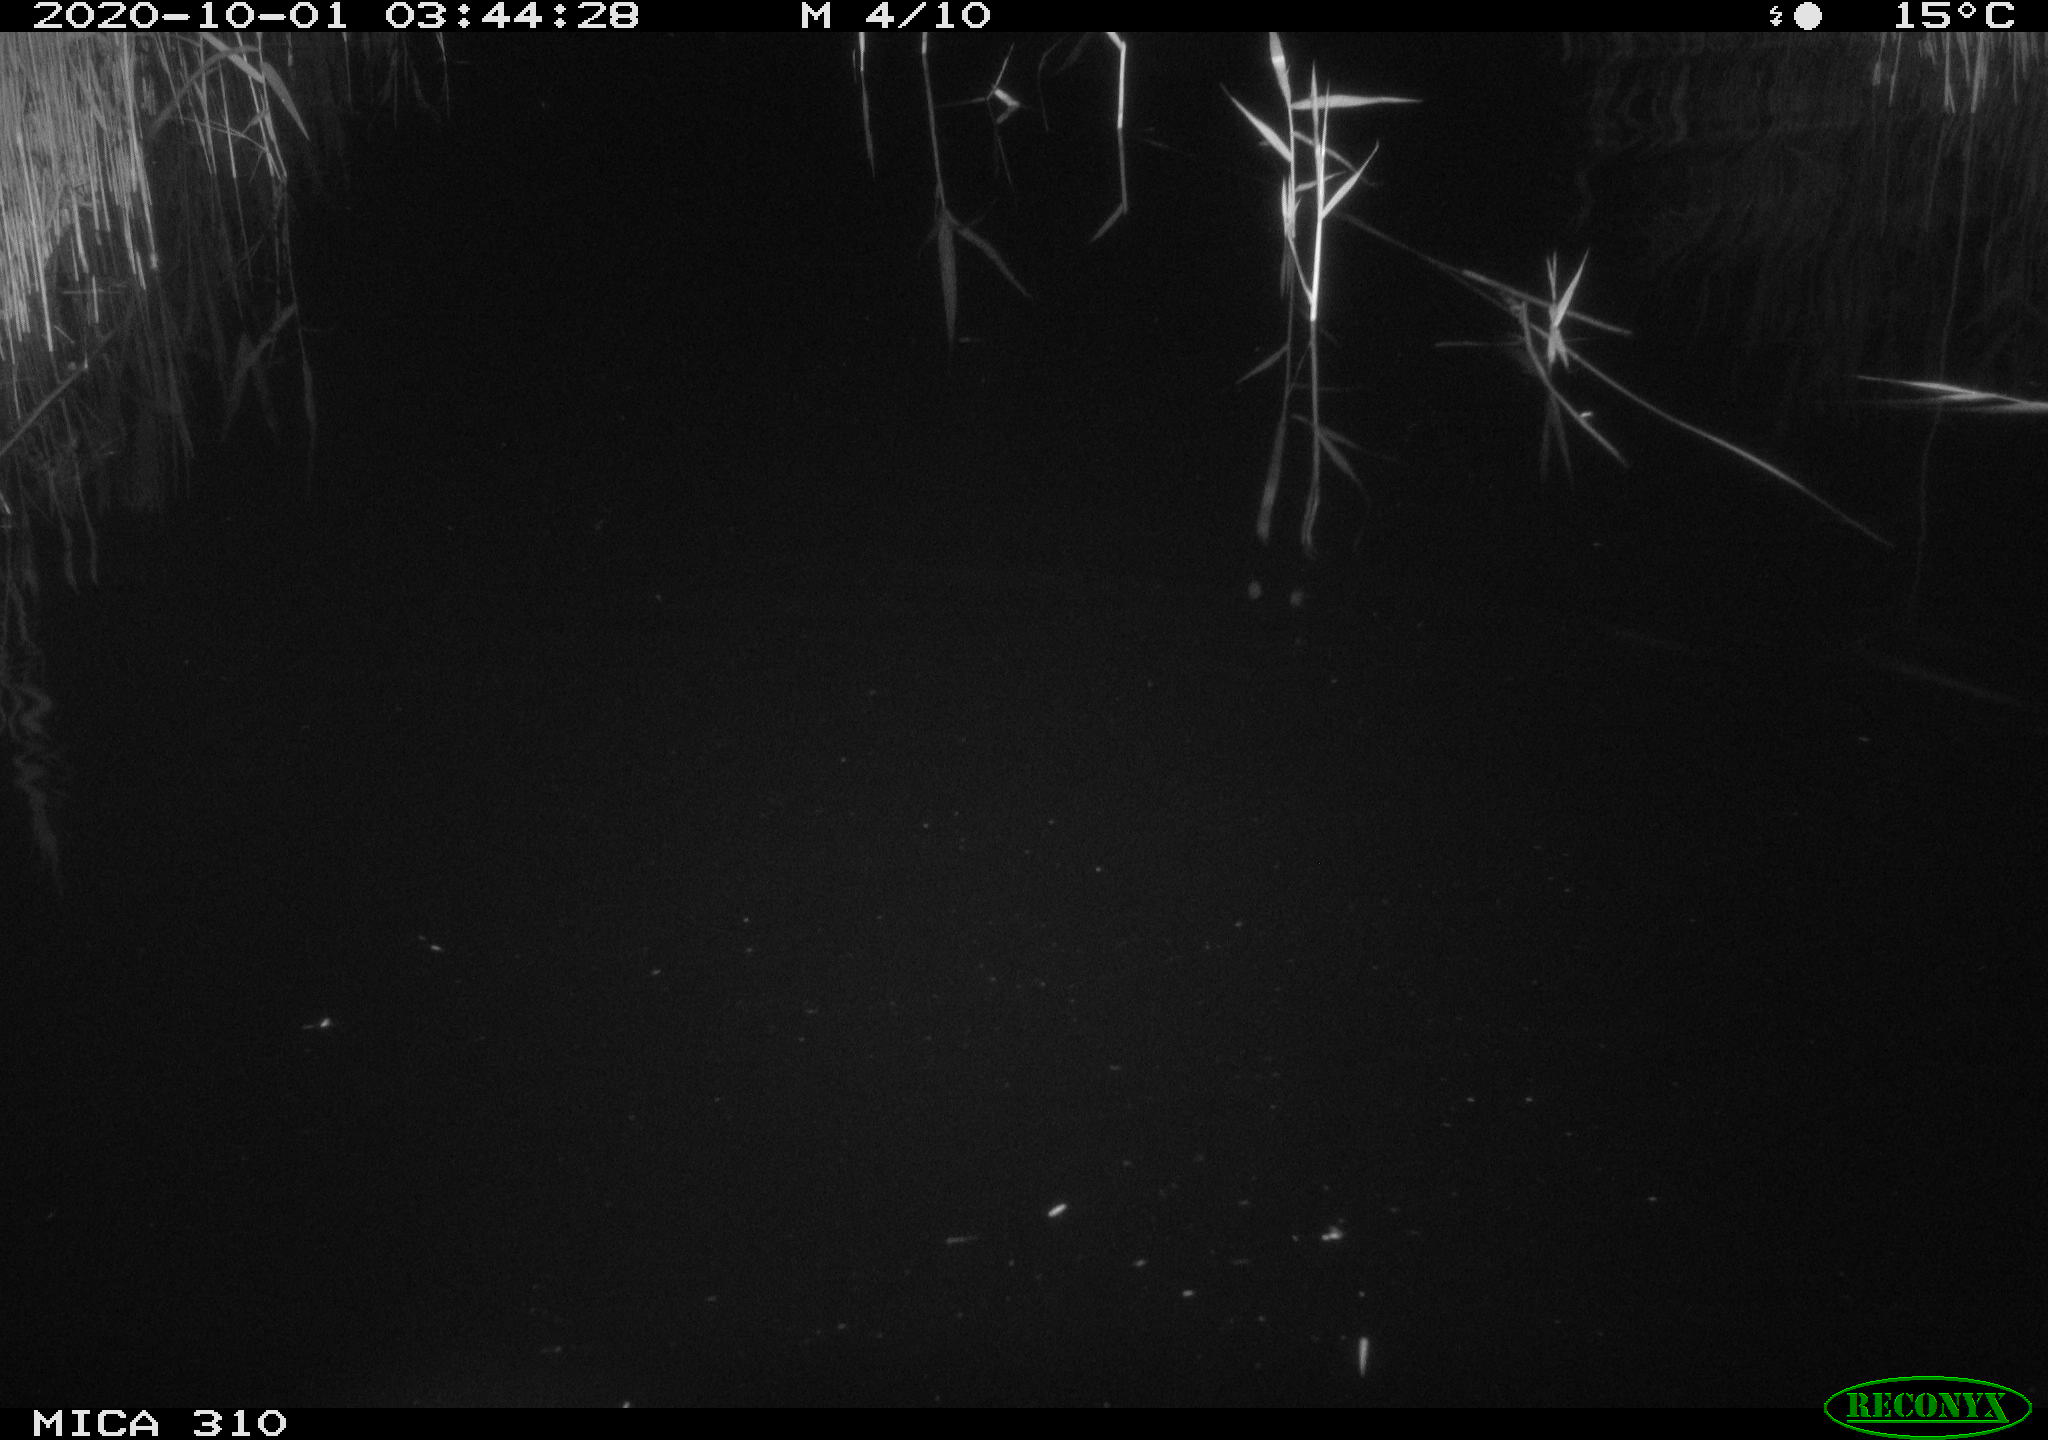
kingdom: Animalia
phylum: Chordata
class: Mammalia
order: Rodentia
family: Muridae
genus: Rattus
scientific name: Rattus norvegicus
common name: Brown rat
